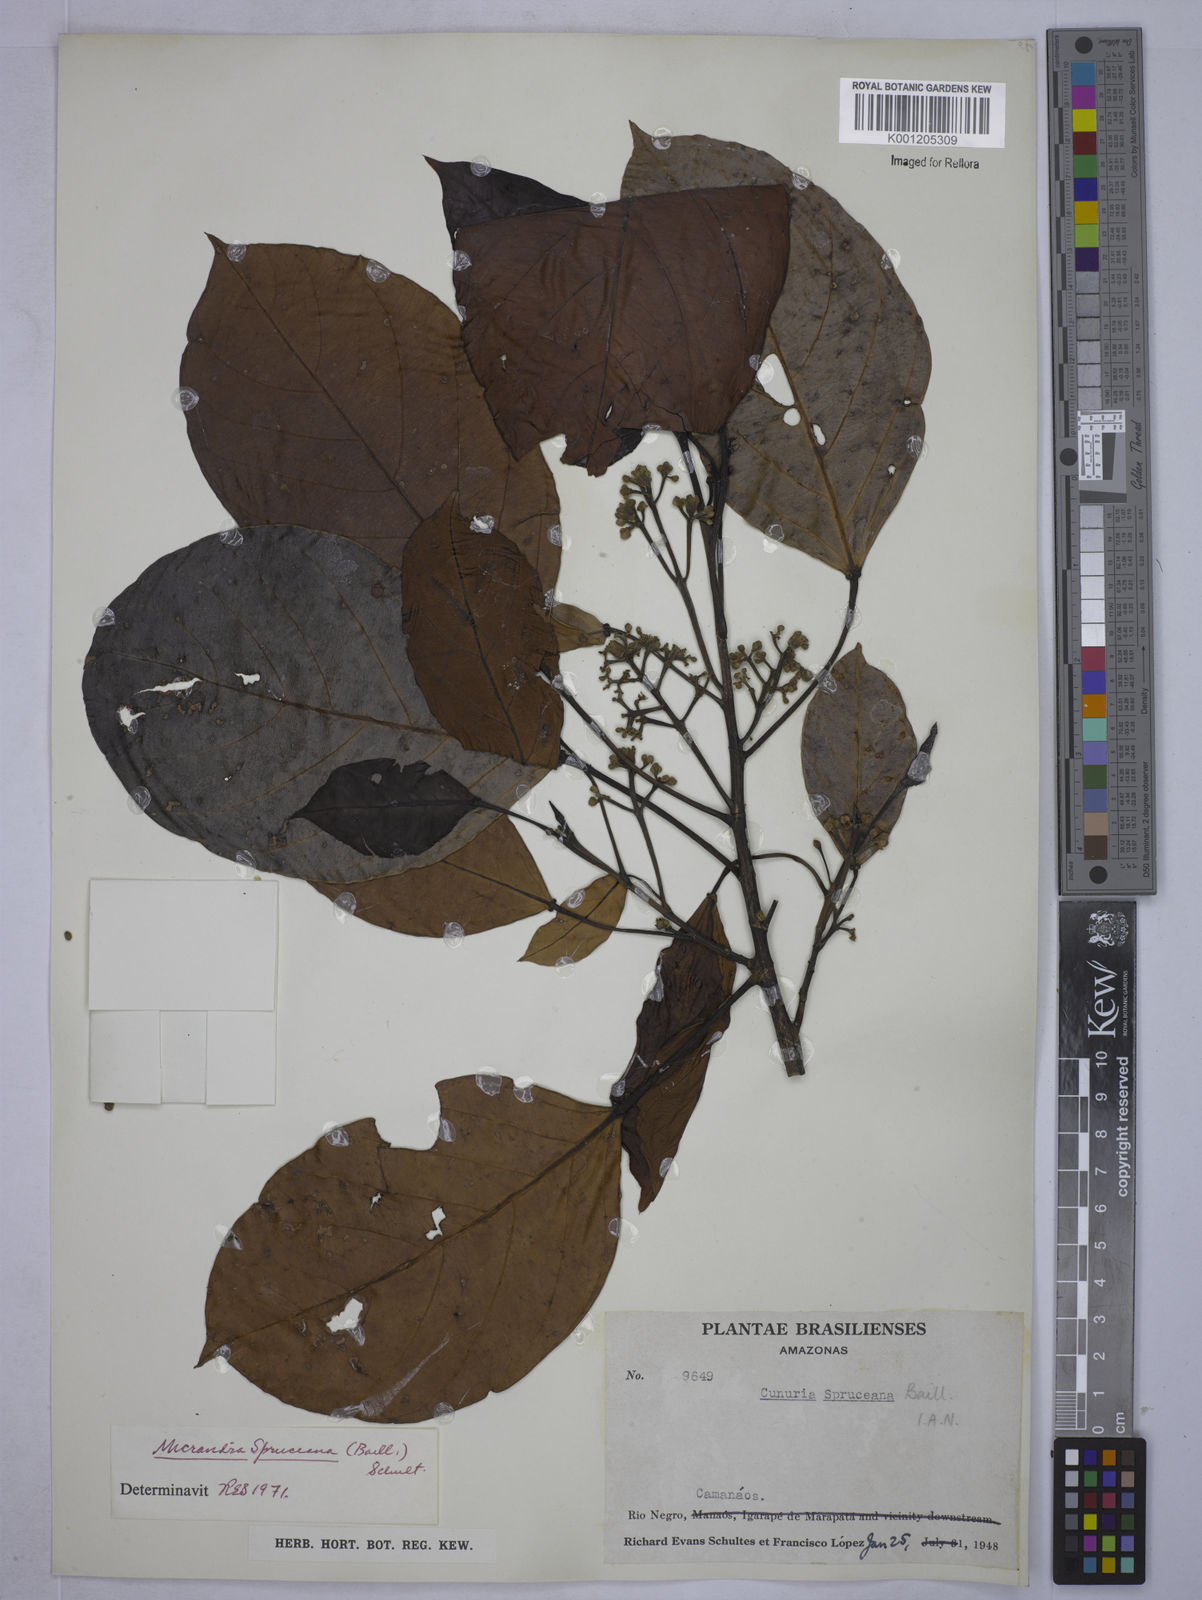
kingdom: Plantae
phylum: Tracheophyta
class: Magnoliopsida
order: Malpighiales
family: Euphorbiaceae
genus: Micrandra
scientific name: Micrandra spruceana
